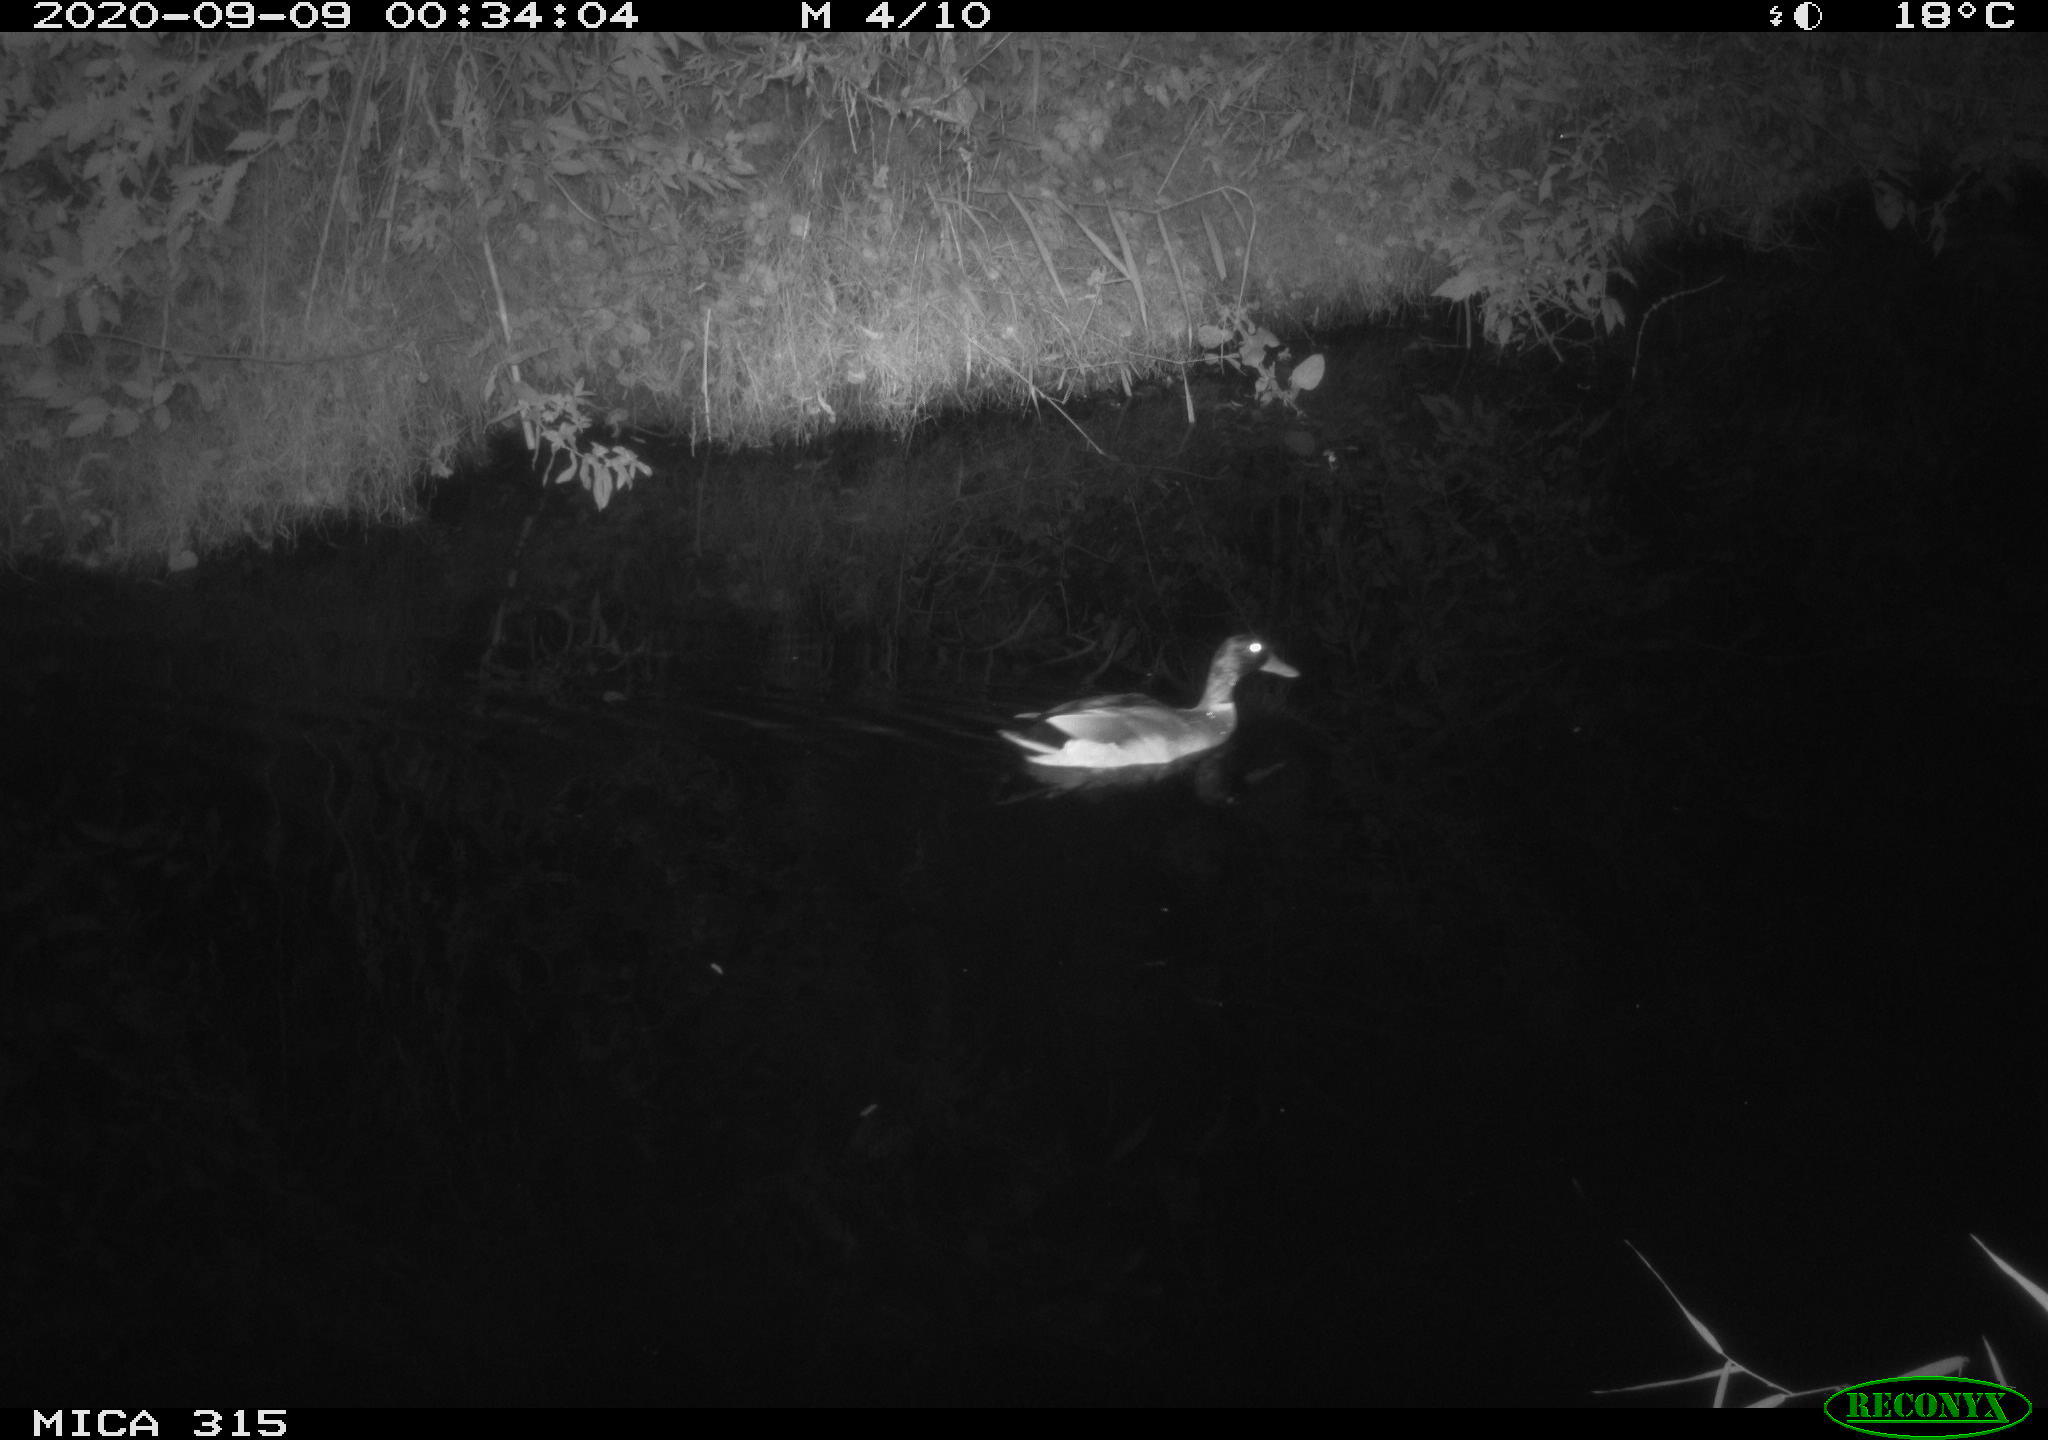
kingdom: Animalia
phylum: Chordata
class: Aves
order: Anseriformes
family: Anatidae
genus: Anas
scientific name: Anas platyrhynchos
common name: Mallard
